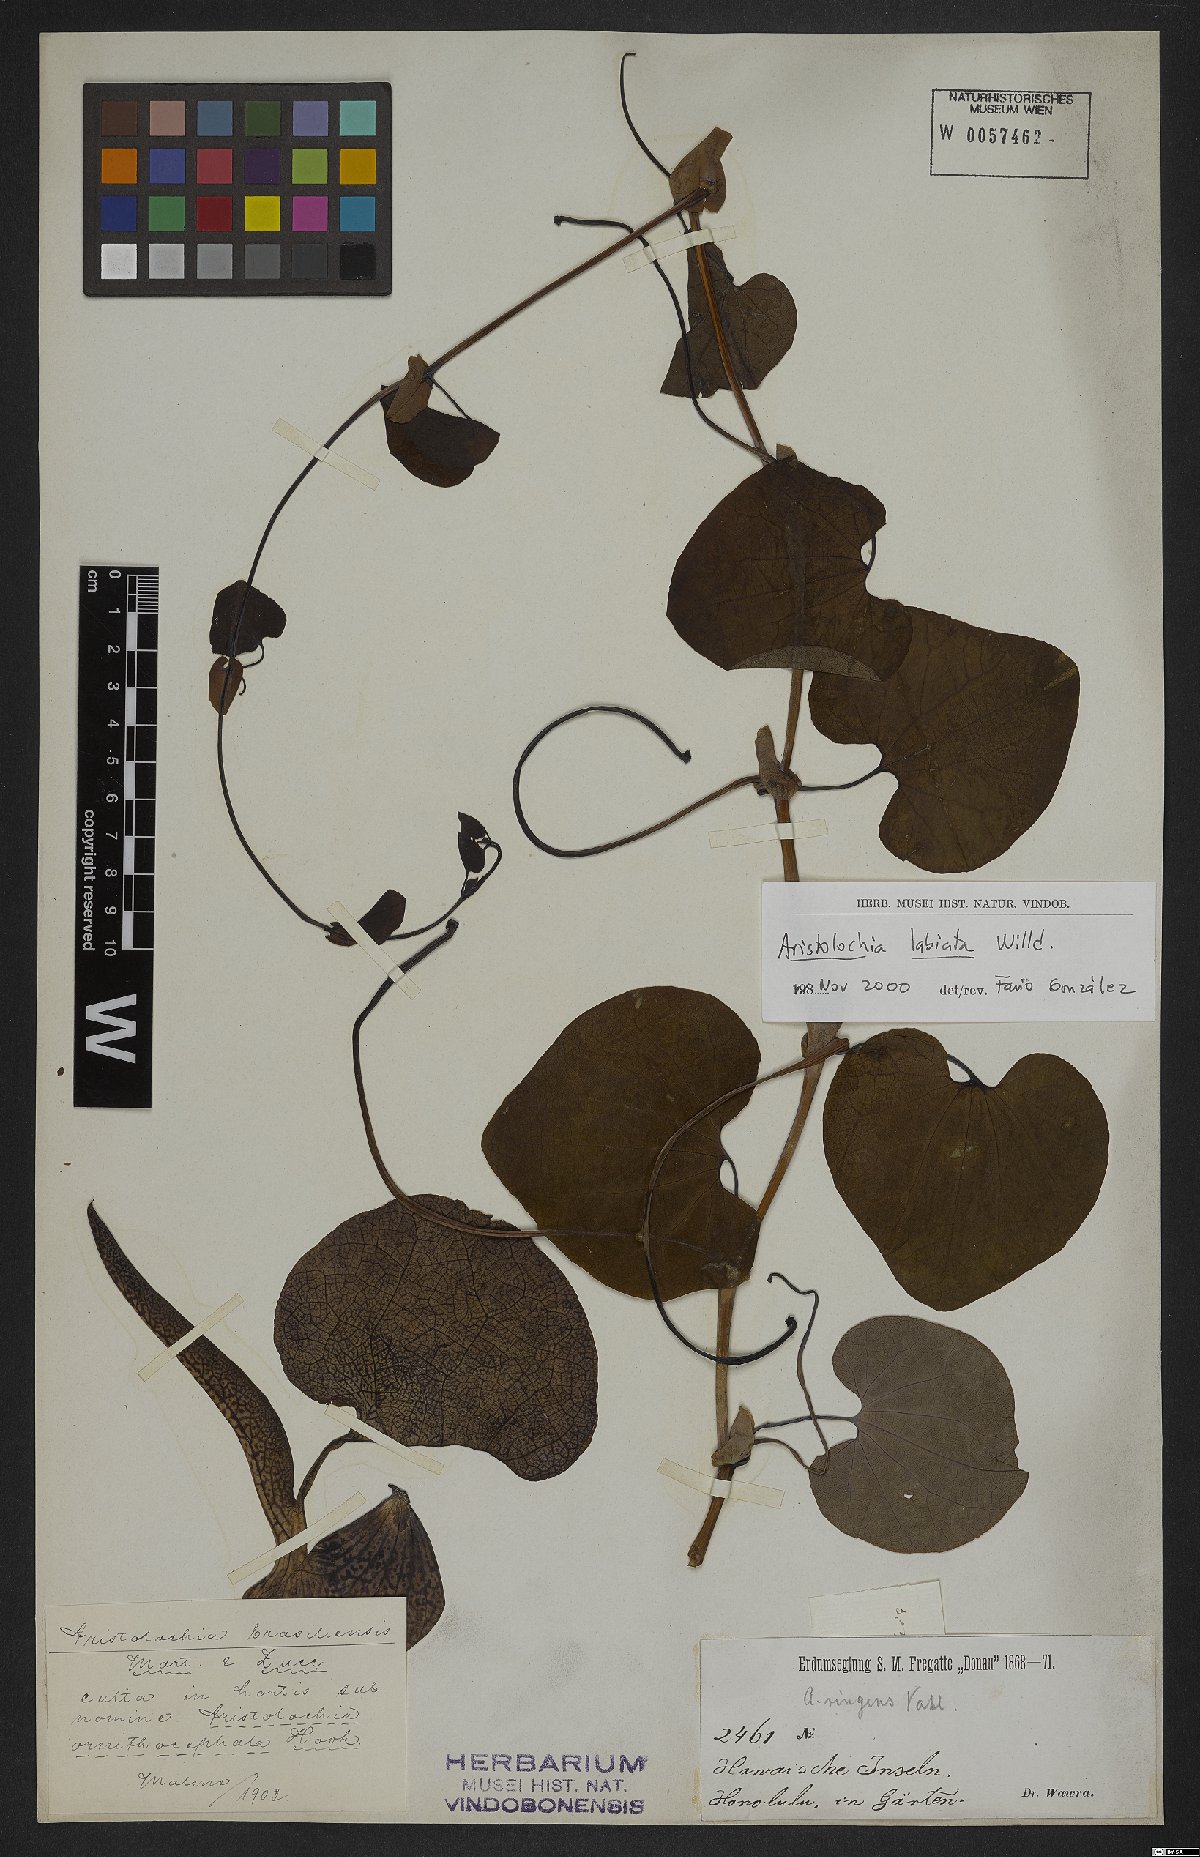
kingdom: Plantae
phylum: Tracheophyta
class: Magnoliopsida
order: Piperales
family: Aristolochiaceae
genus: Aristolochia
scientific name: Aristolochia labiata
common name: Mottled dutchman's pipe
